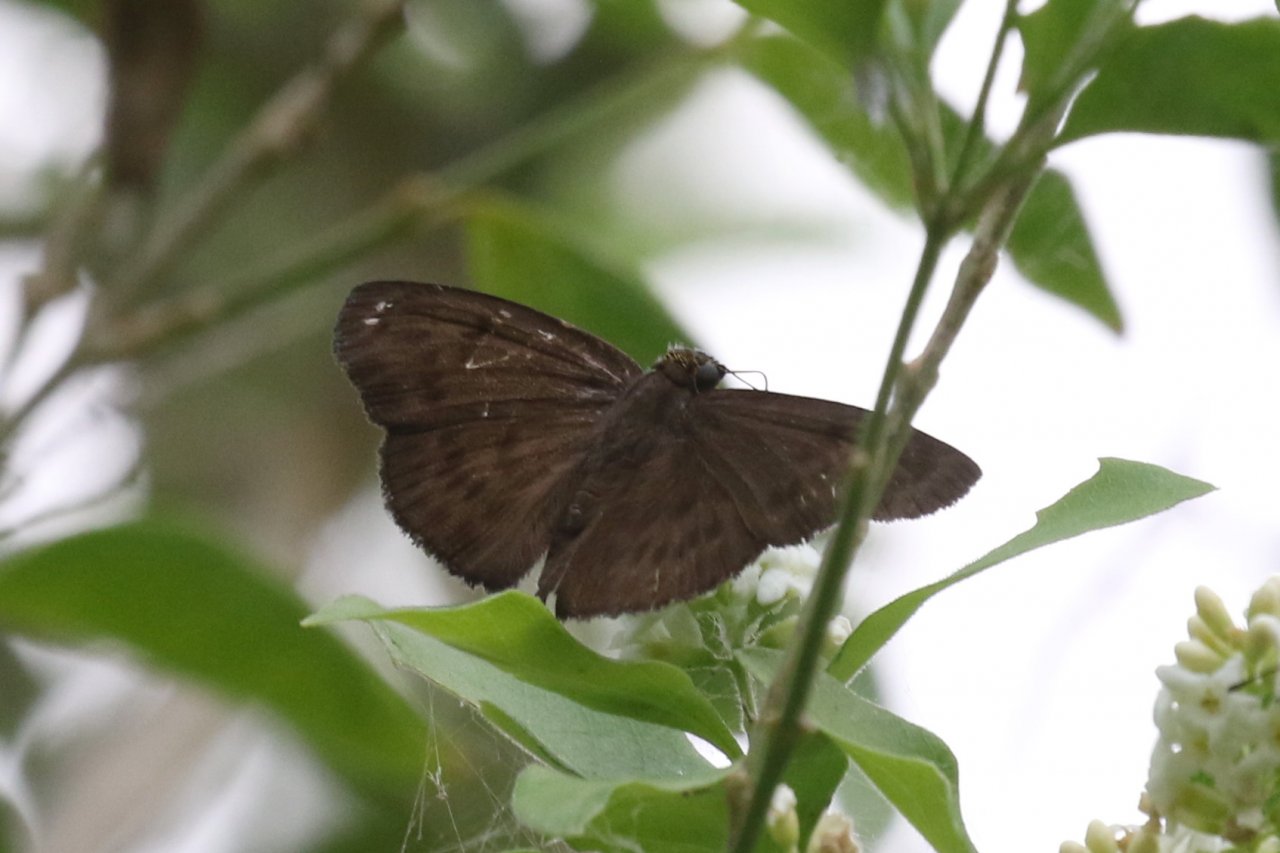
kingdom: Animalia
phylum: Arthropoda
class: Insecta
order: Lepidoptera
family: Hesperiidae
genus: Grais
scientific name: Grais stigmaticus
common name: Hermit Skipper
